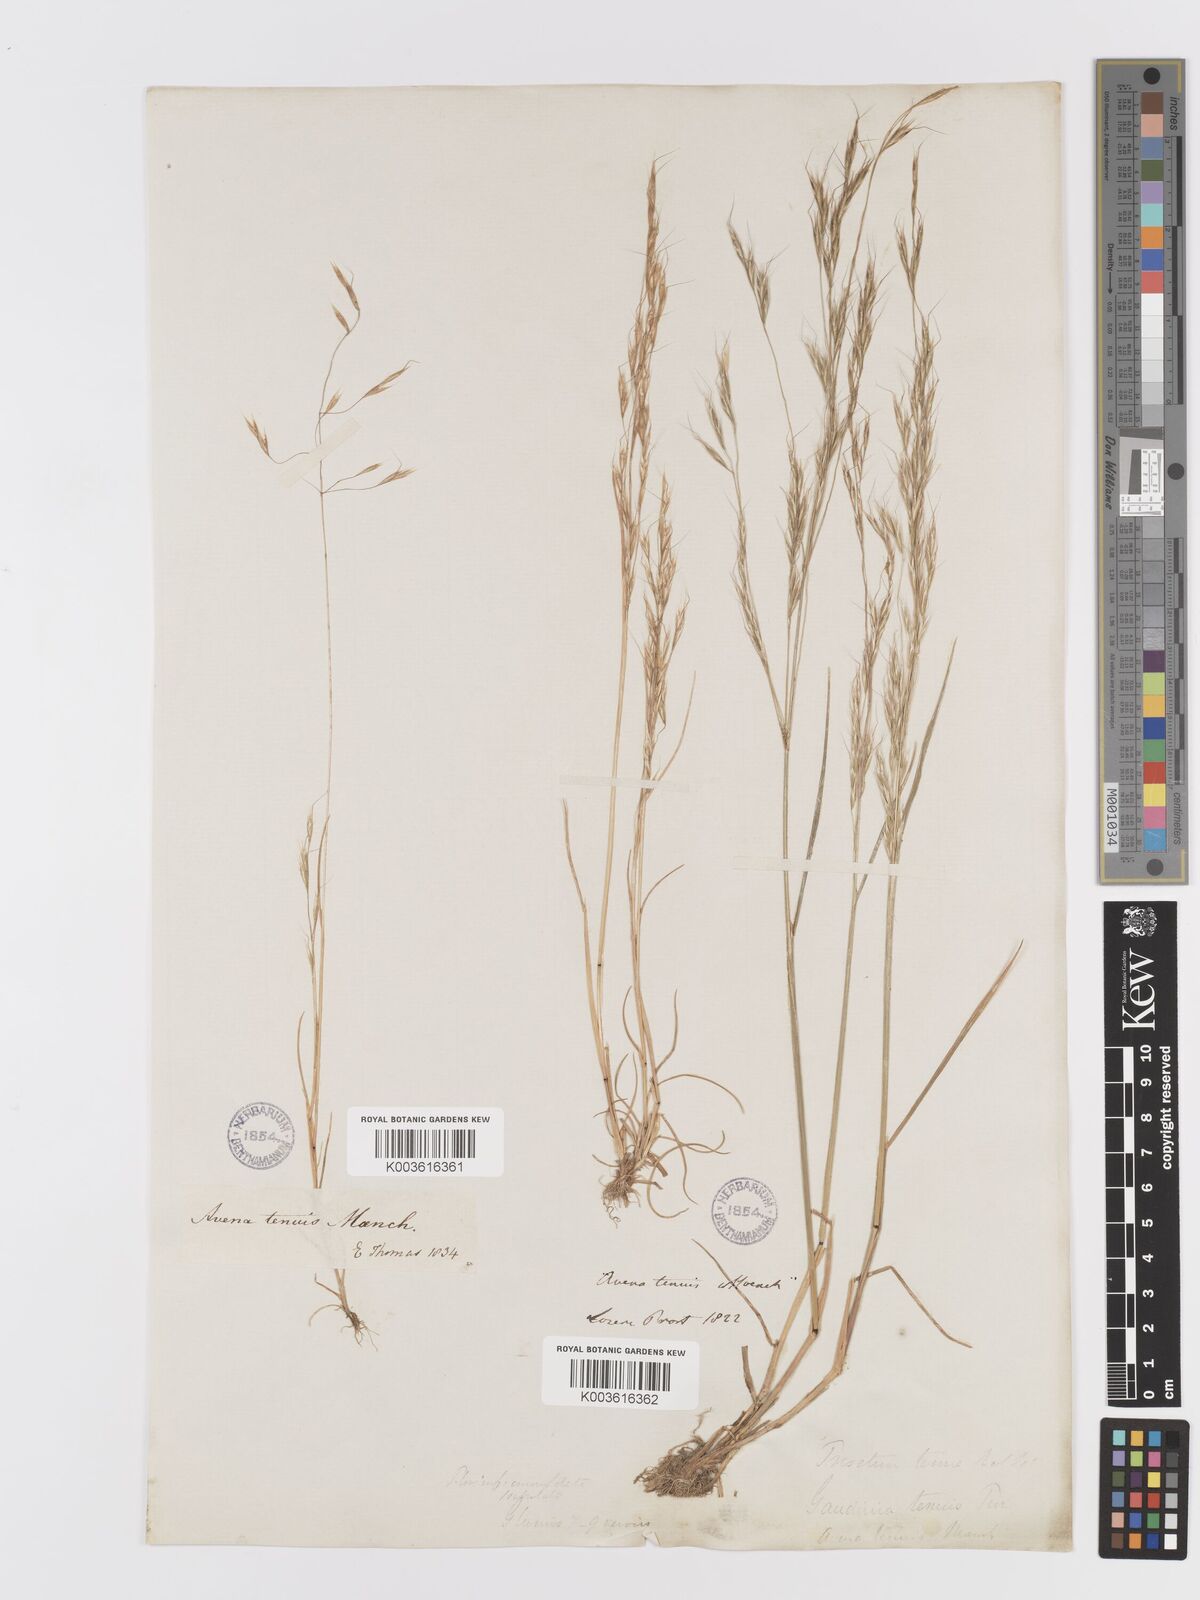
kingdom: Plantae
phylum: Tracheophyta
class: Liliopsida
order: Poales
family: Poaceae
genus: Ventenata
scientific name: Ventenata dubia
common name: North africa grass
